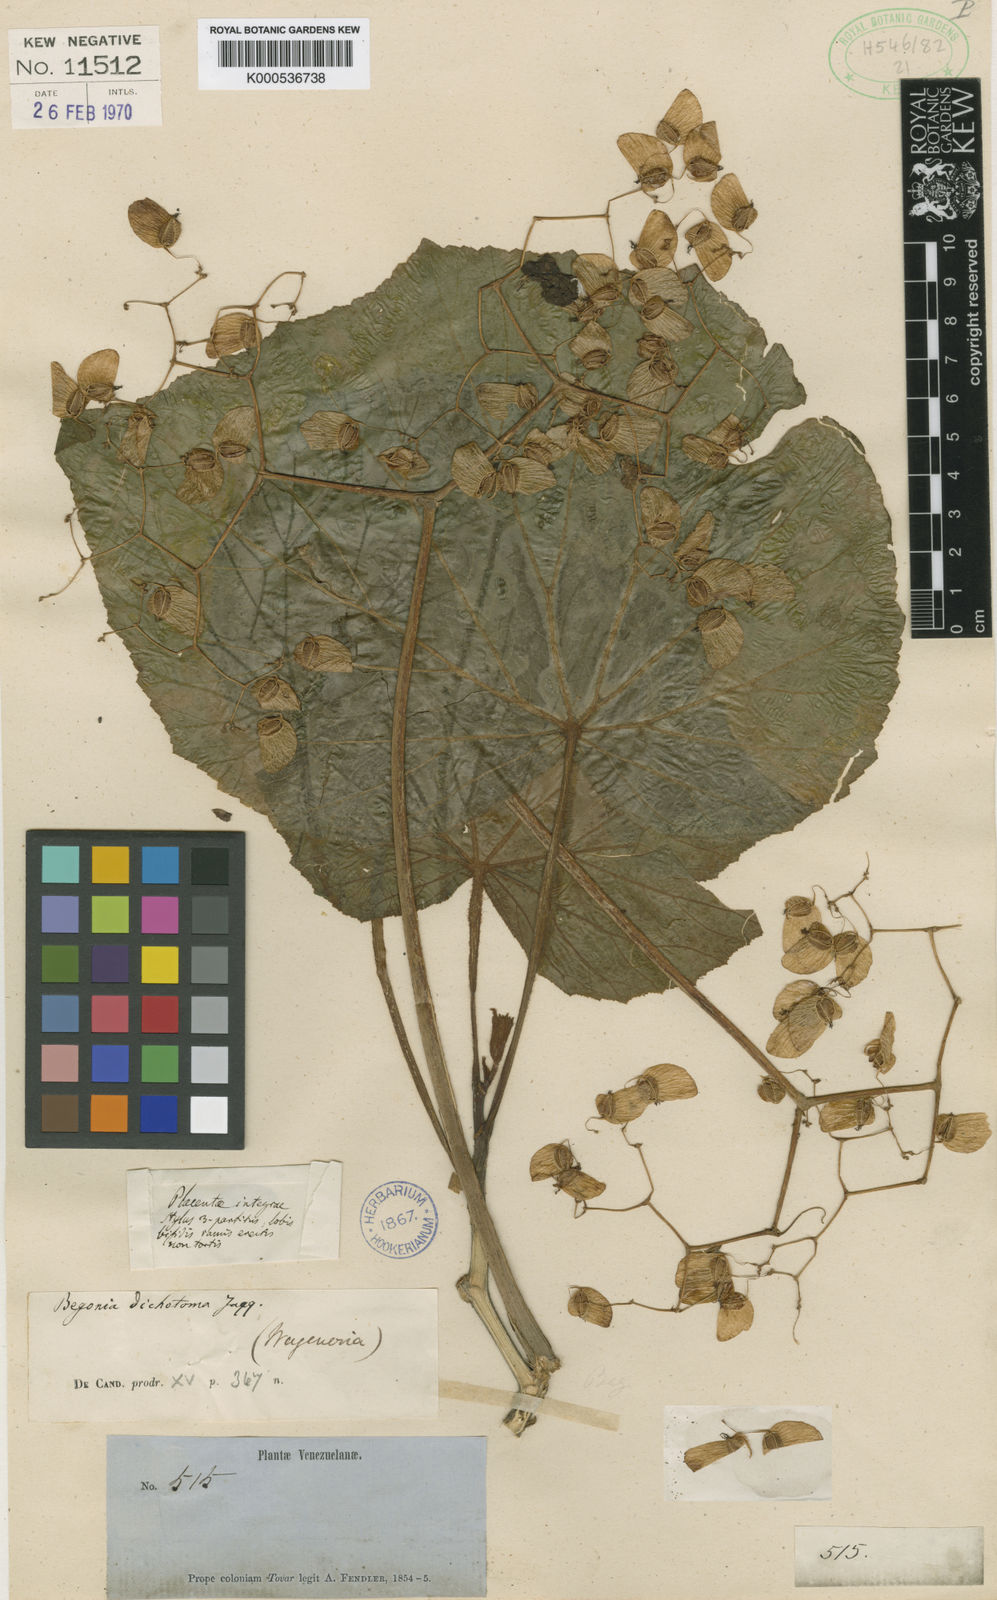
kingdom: Plantae
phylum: Tracheophyta
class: Magnoliopsida
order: Cucurbitales
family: Begoniaceae
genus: Begonia
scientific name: Begonia dichotoma
